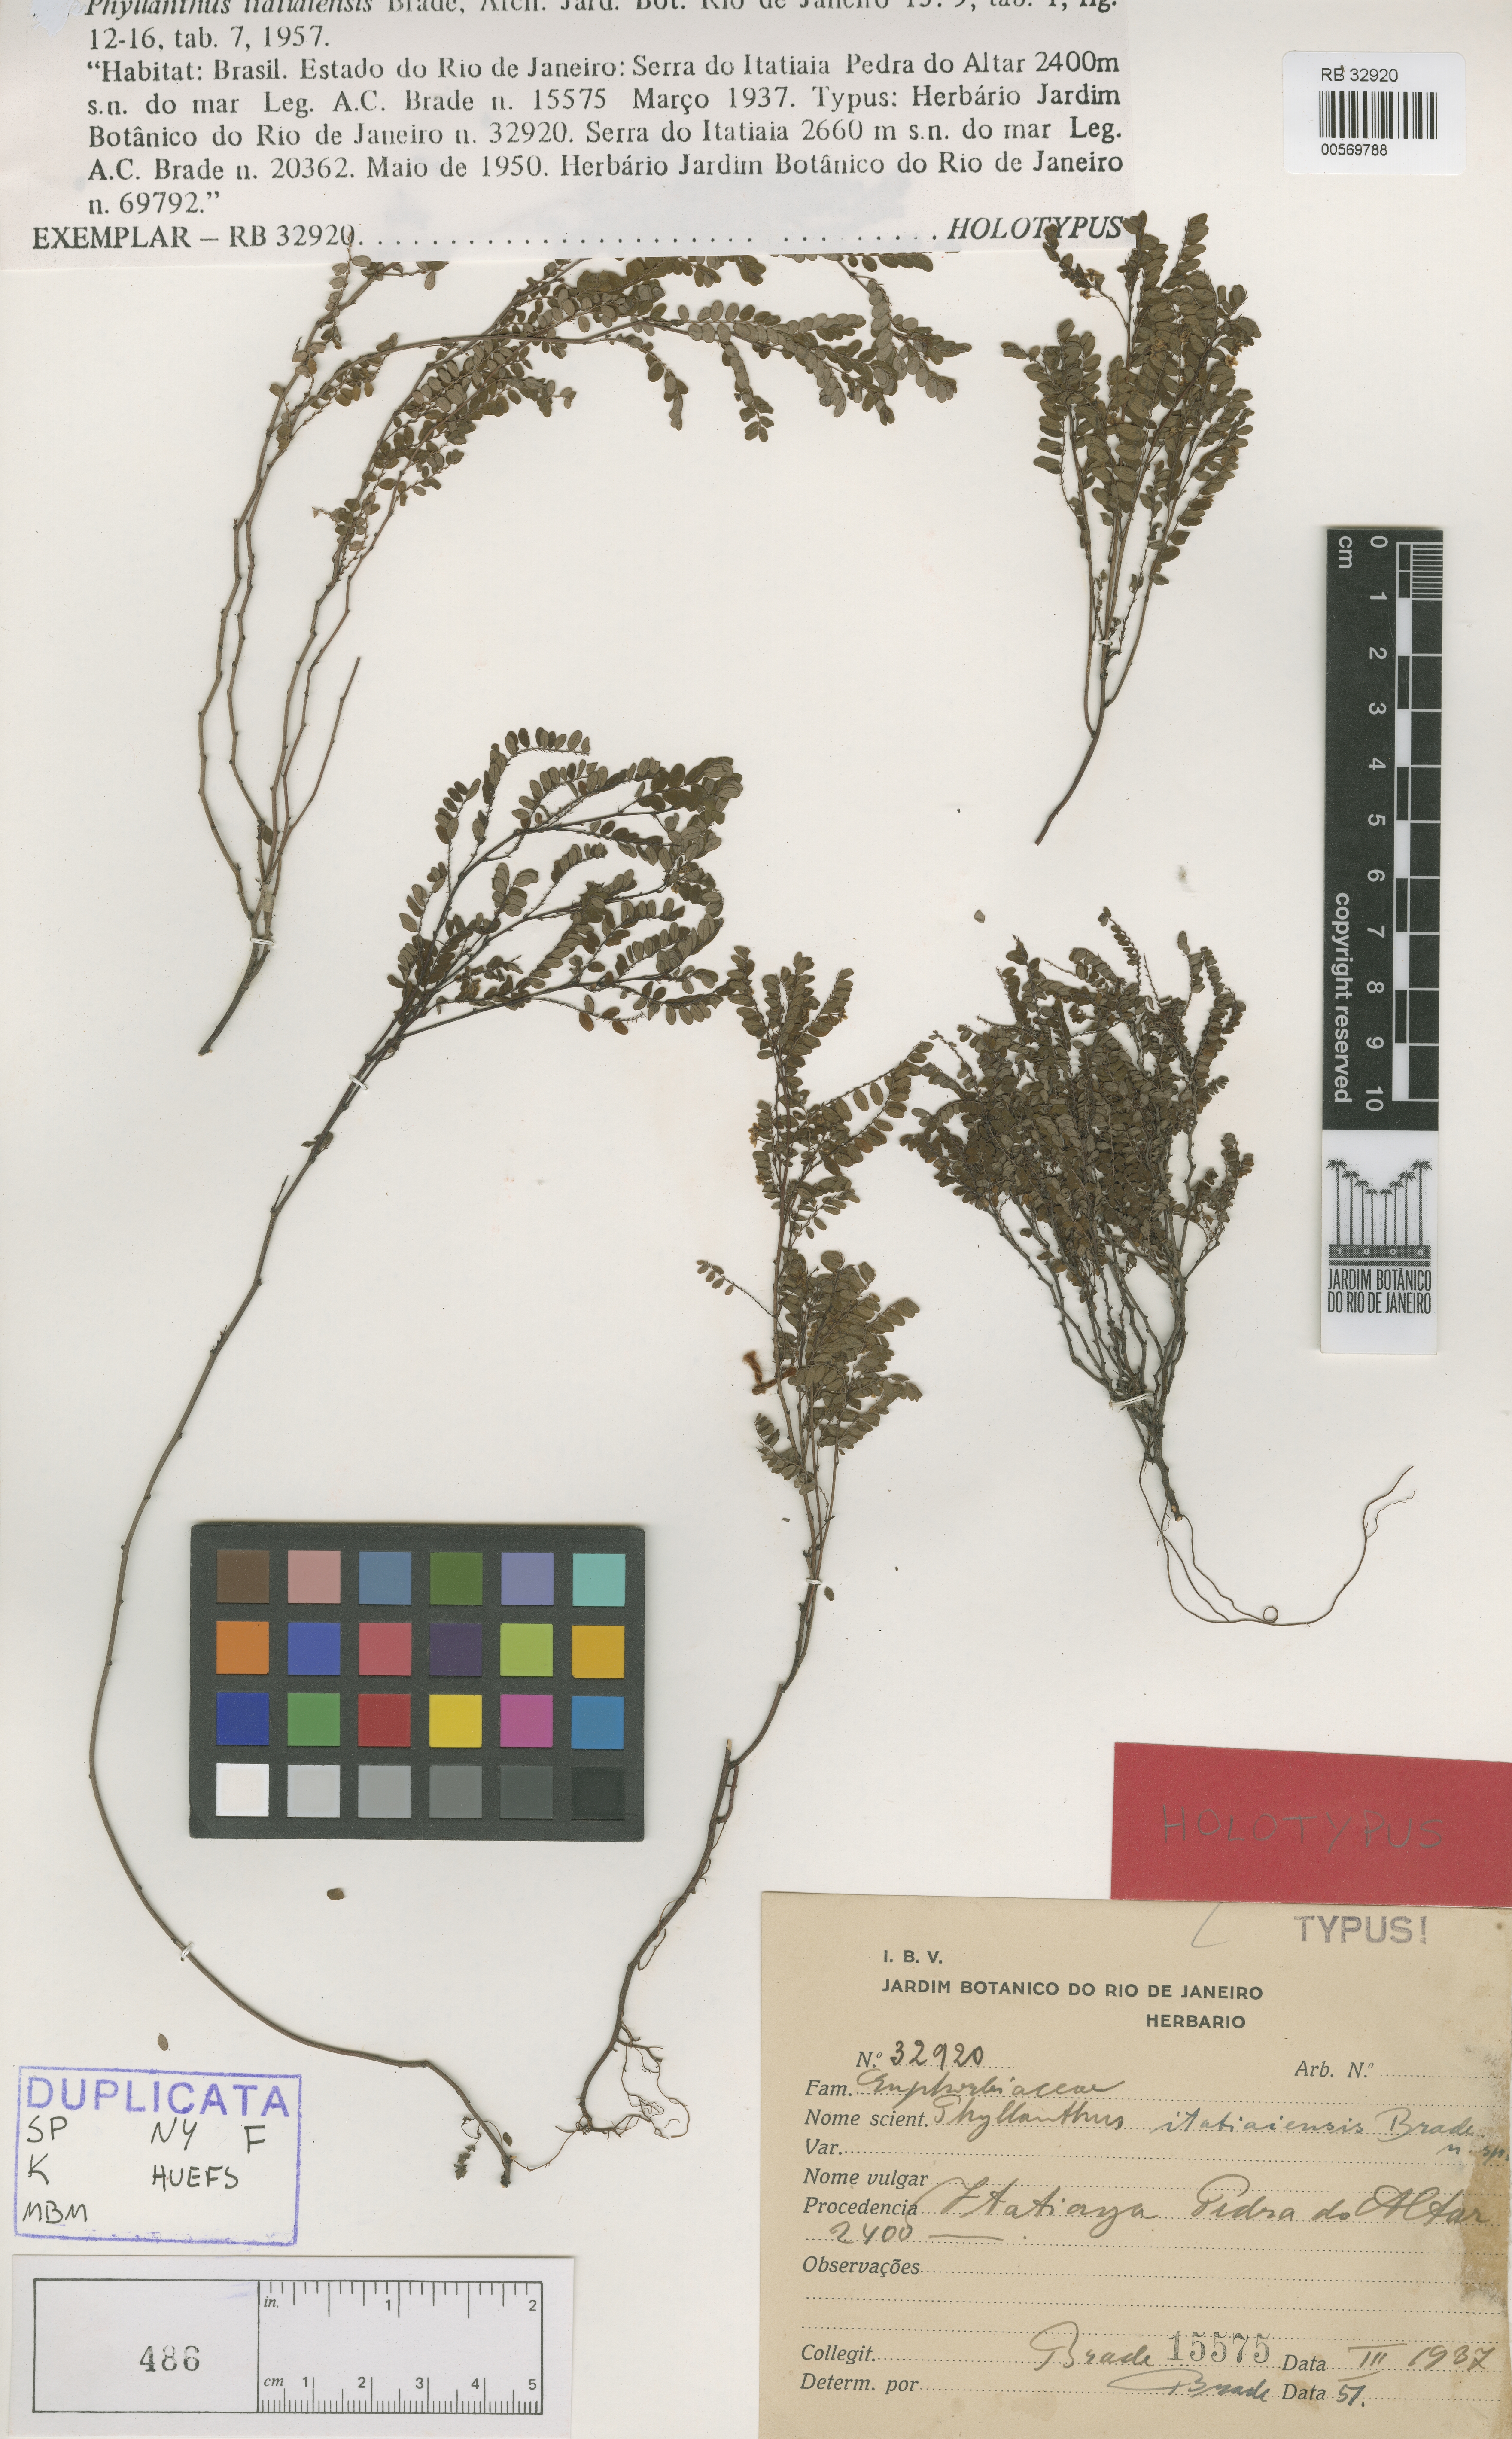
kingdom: Plantae
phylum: Tracheophyta
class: Magnoliopsida
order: Malpighiales
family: Phyllanthaceae
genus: Phyllanthus
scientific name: Phyllanthus itatiaiensis
